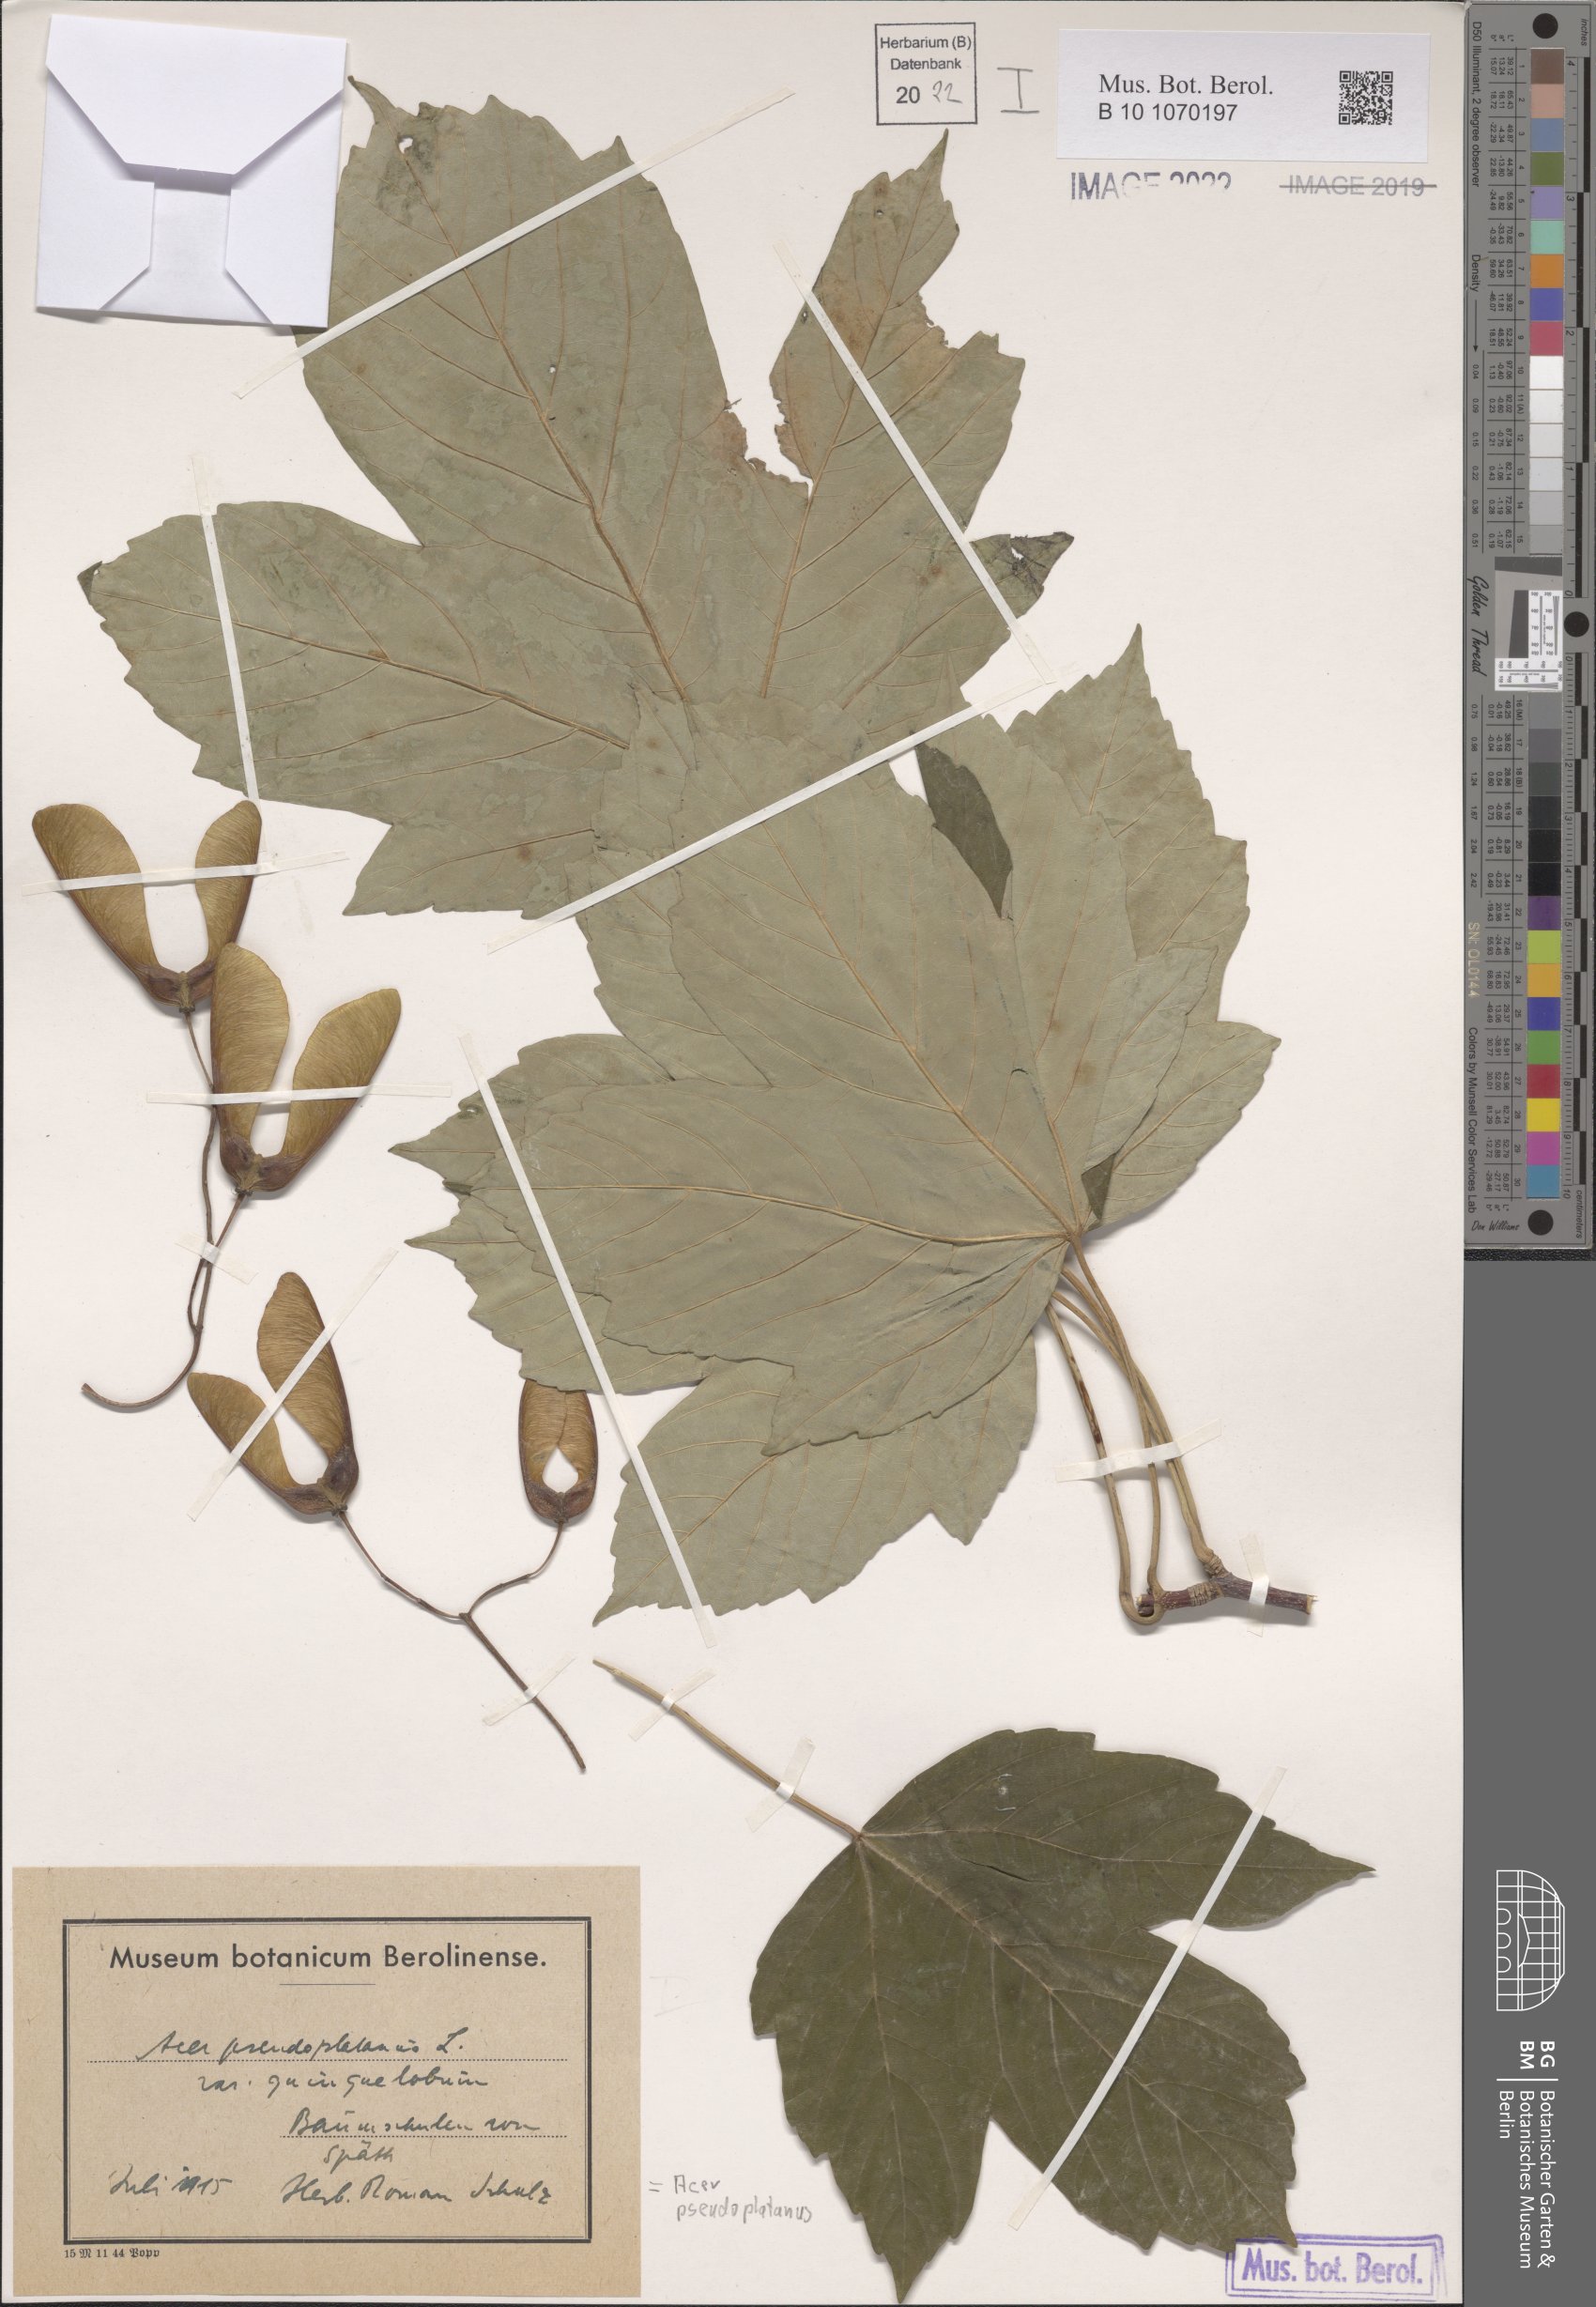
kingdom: Plantae
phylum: Tracheophyta
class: Magnoliopsida
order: Sapindales
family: Sapindaceae
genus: Acer
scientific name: Acer pseudoplatanus
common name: Sycamore
